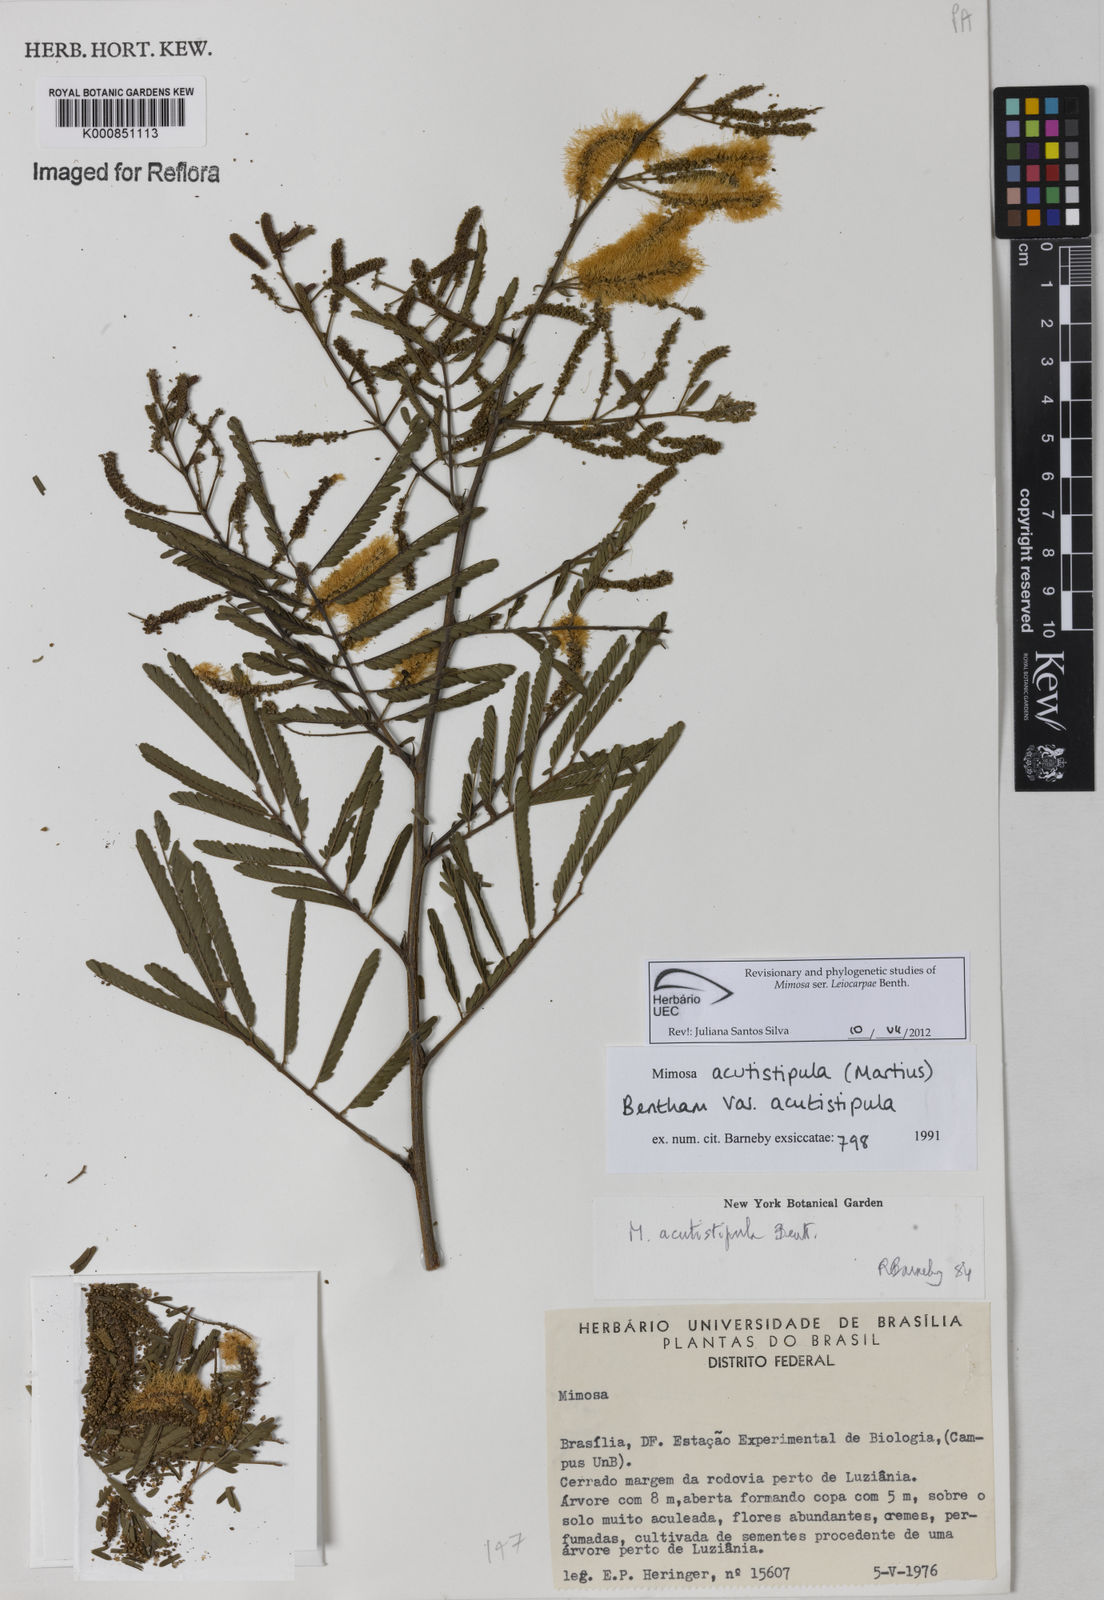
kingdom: Plantae
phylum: Tracheophyta
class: Magnoliopsida
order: Fabales
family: Fabaceae
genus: Mimosa
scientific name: Mimosa acutistipula
